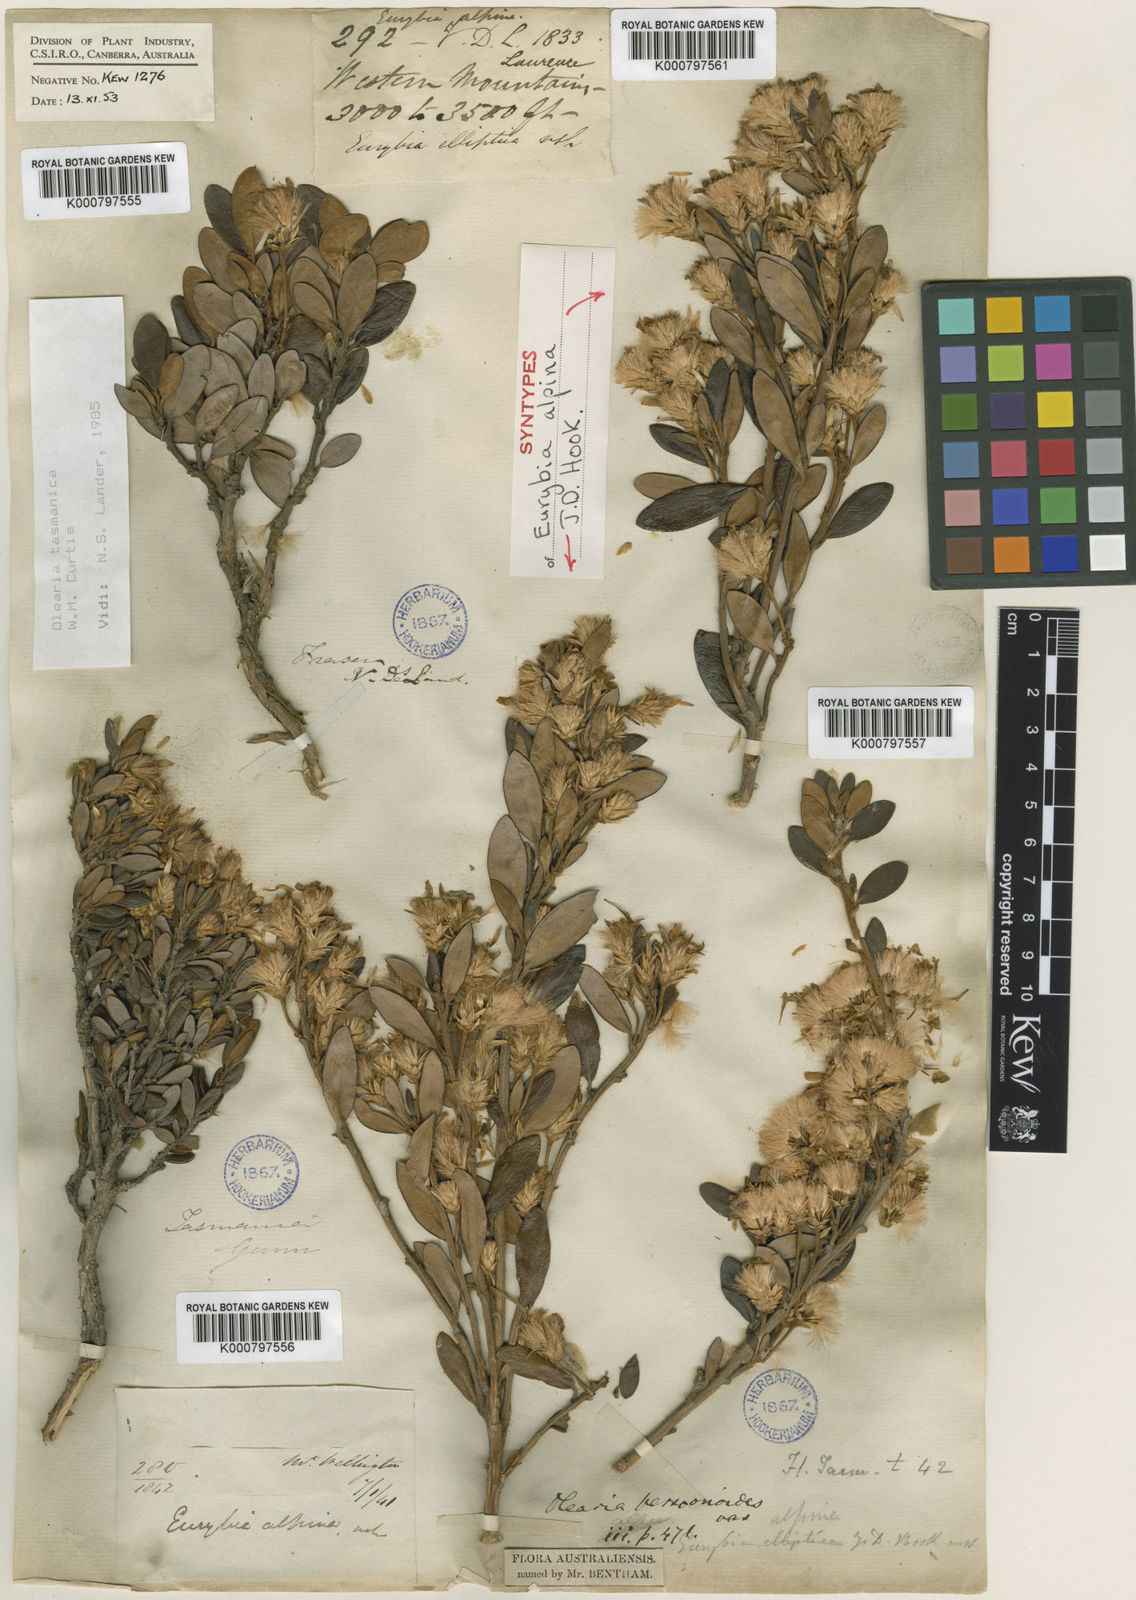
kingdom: Plantae
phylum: Tracheophyta
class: Magnoliopsida
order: Asterales
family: Asteraceae
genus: Olearia
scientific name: Olearia tasmanica
